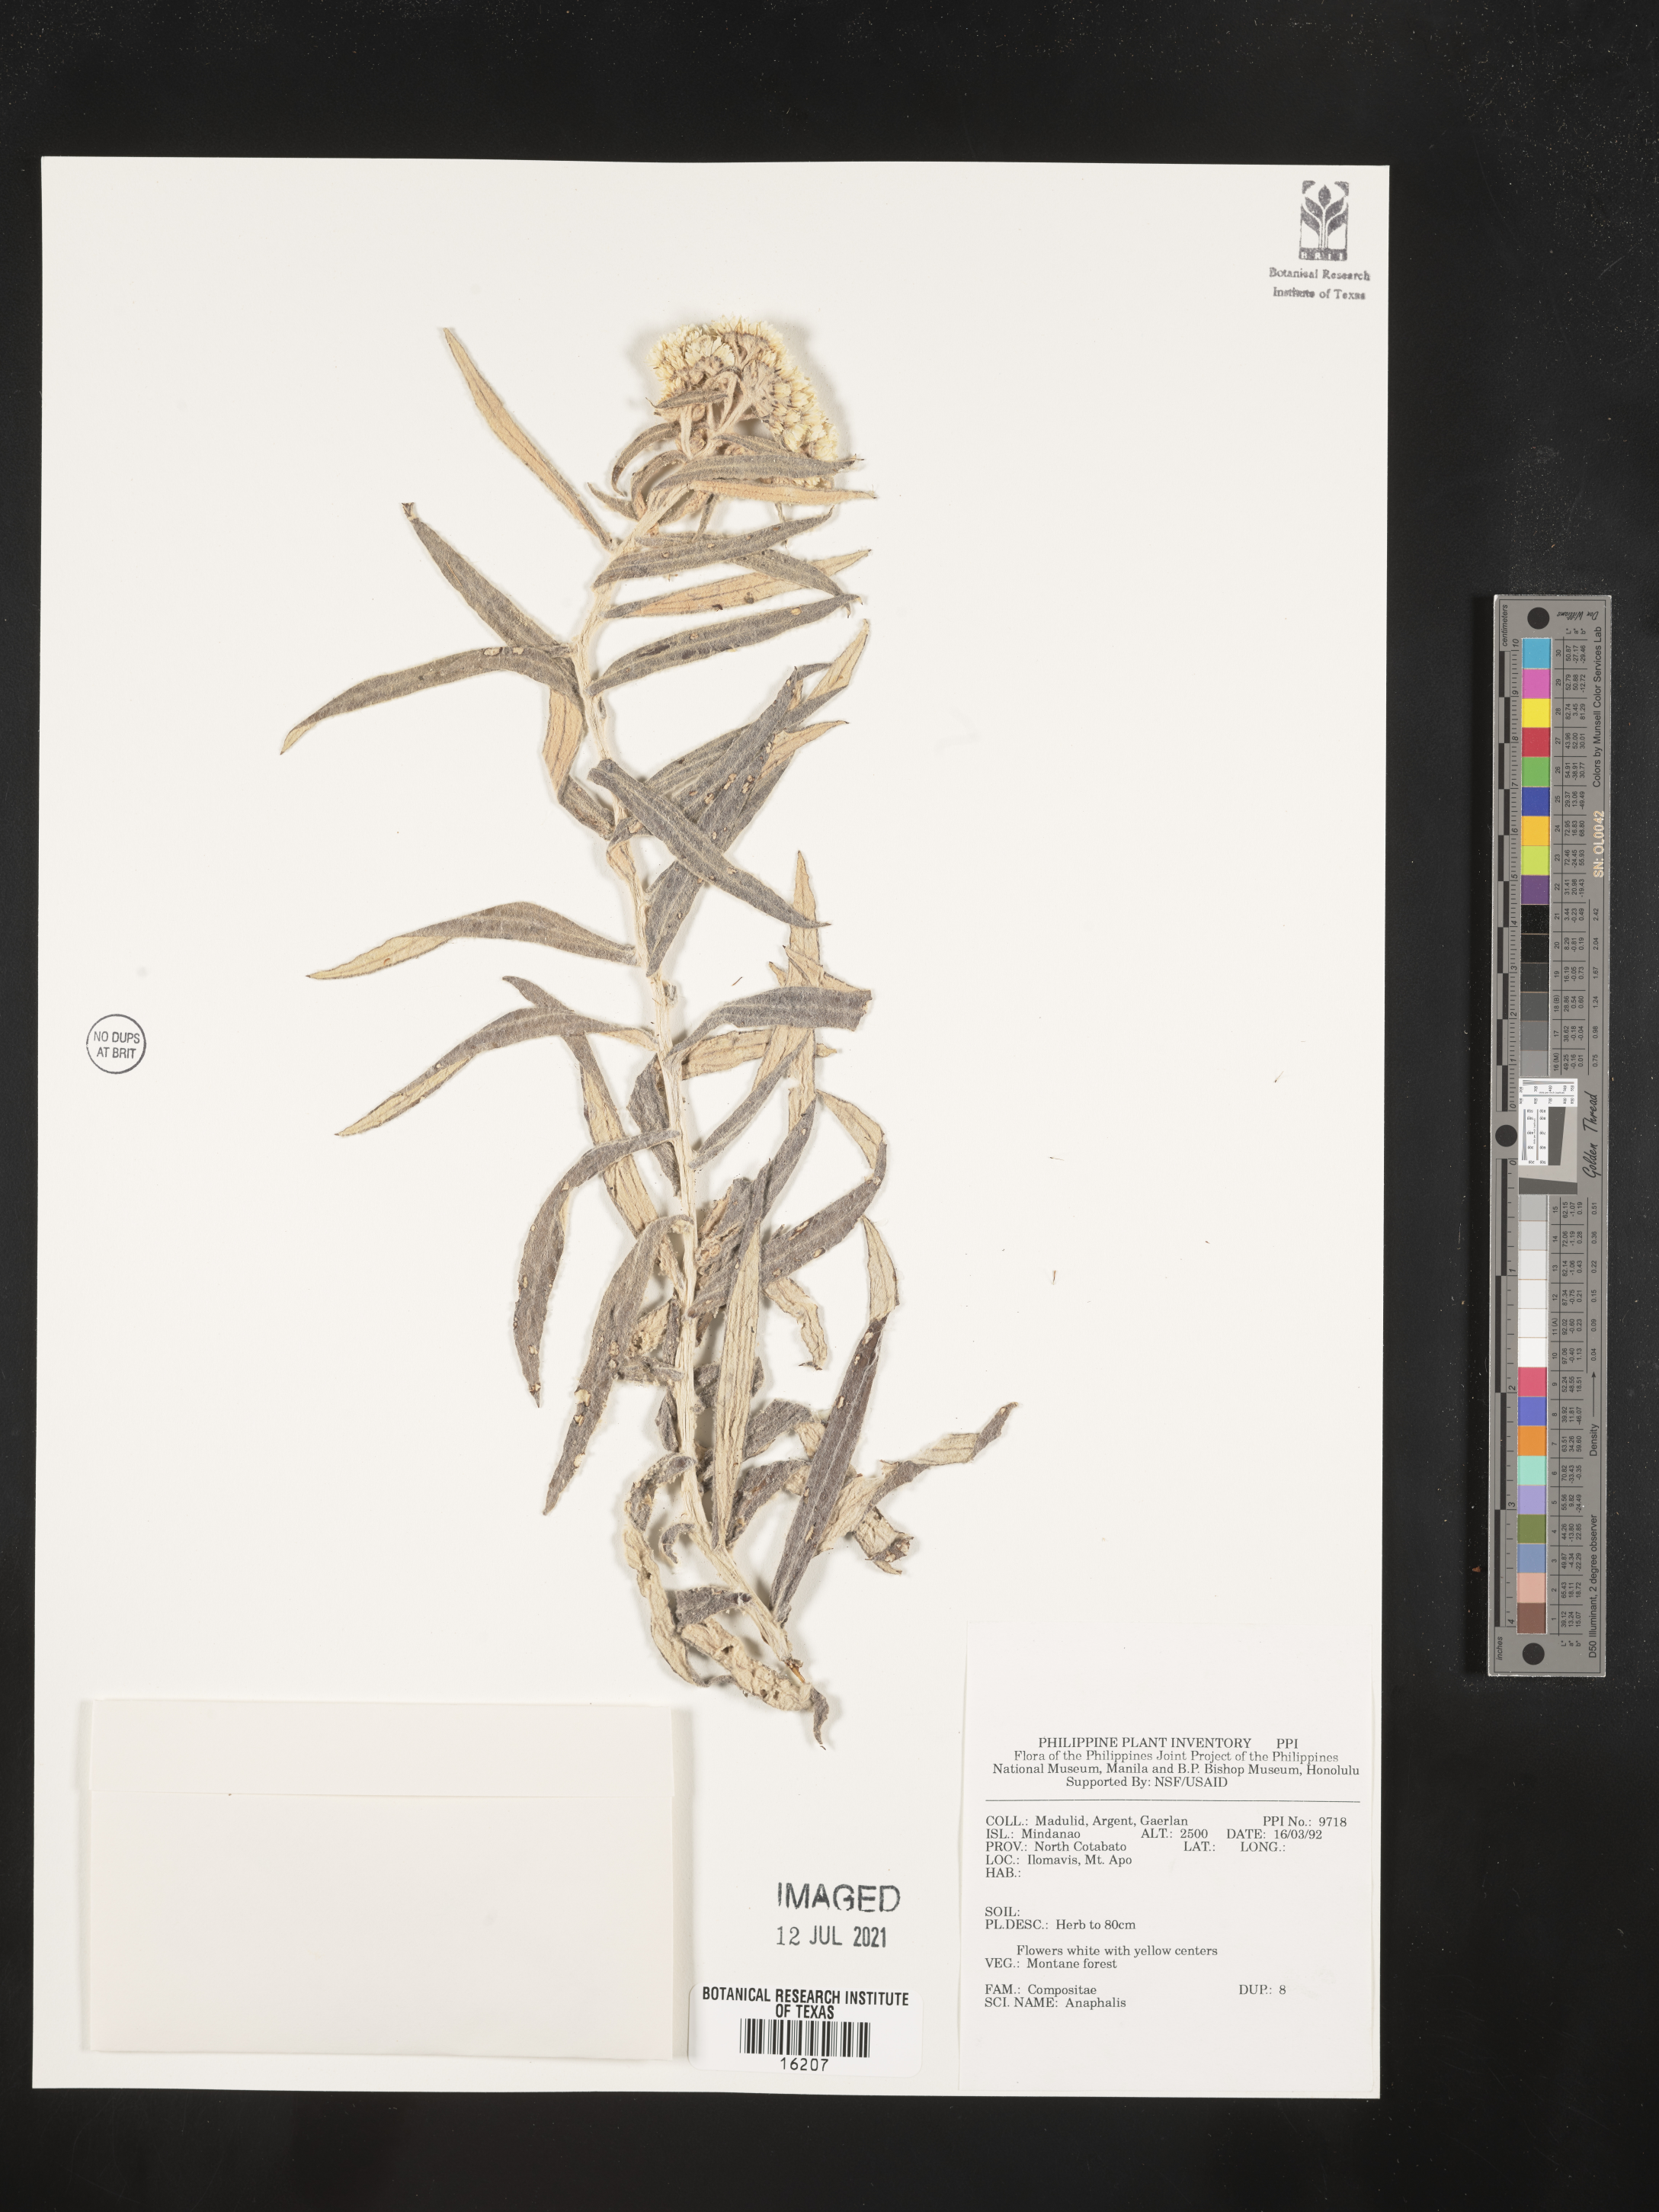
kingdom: Plantae
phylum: Tracheophyta
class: Magnoliopsida
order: Asterales
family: Asteraceae
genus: Anaphalis
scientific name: Anaphalis
